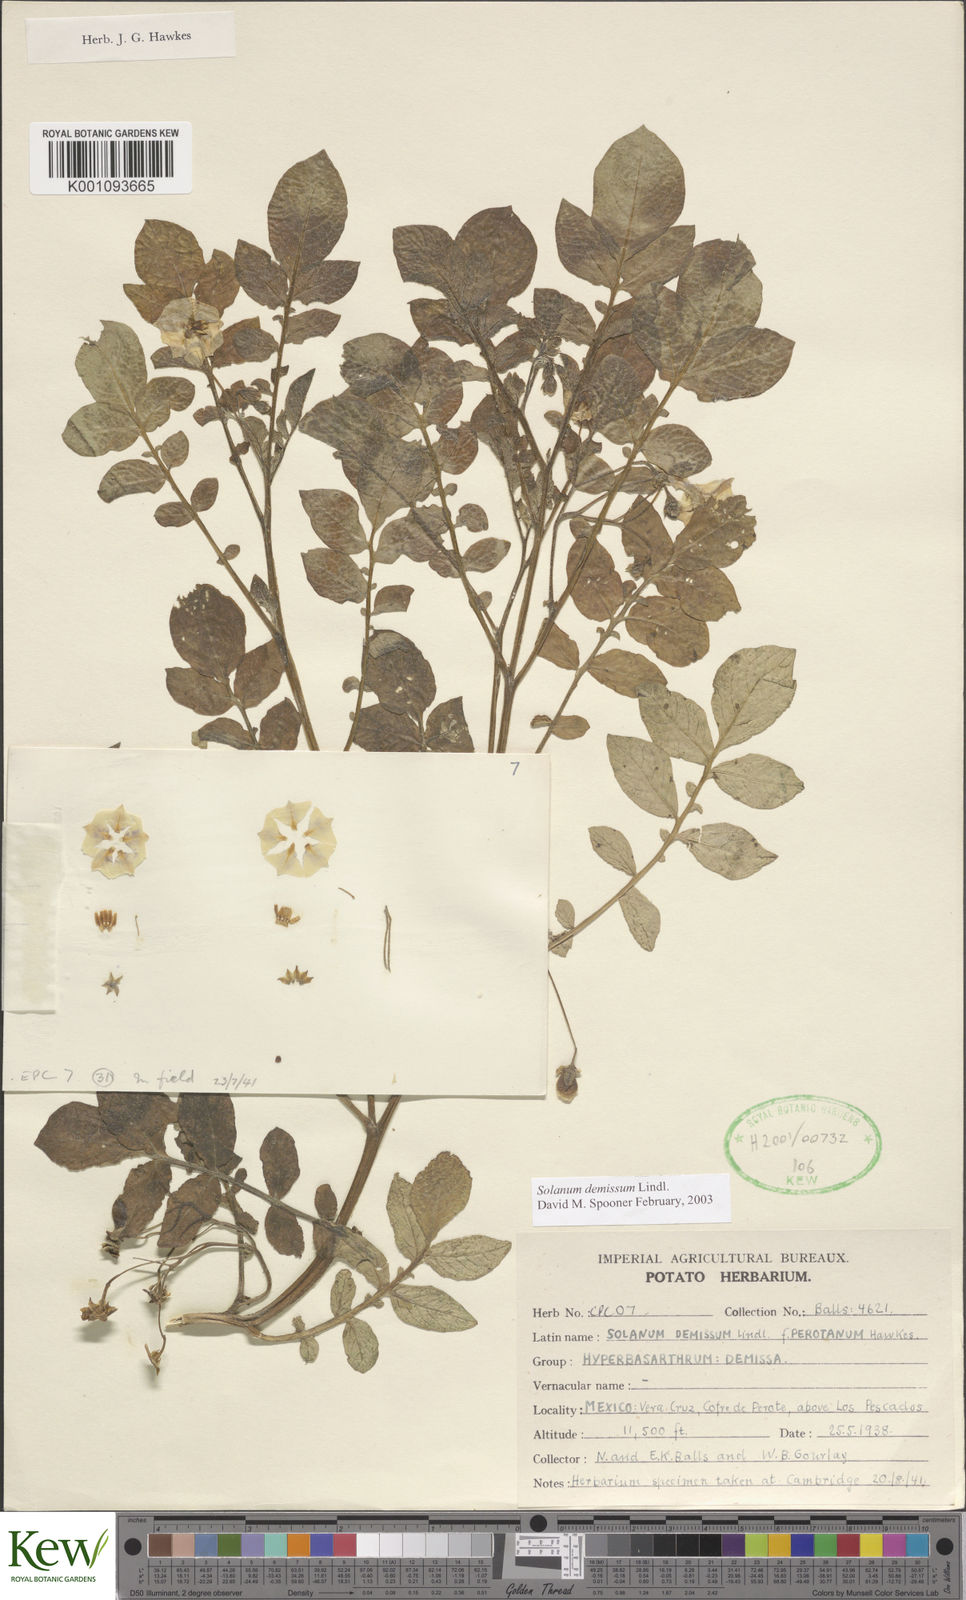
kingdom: Plantae
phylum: Tracheophyta
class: Magnoliopsida
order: Solanales
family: Solanaceae
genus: Solanum
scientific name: Solanum demissum
